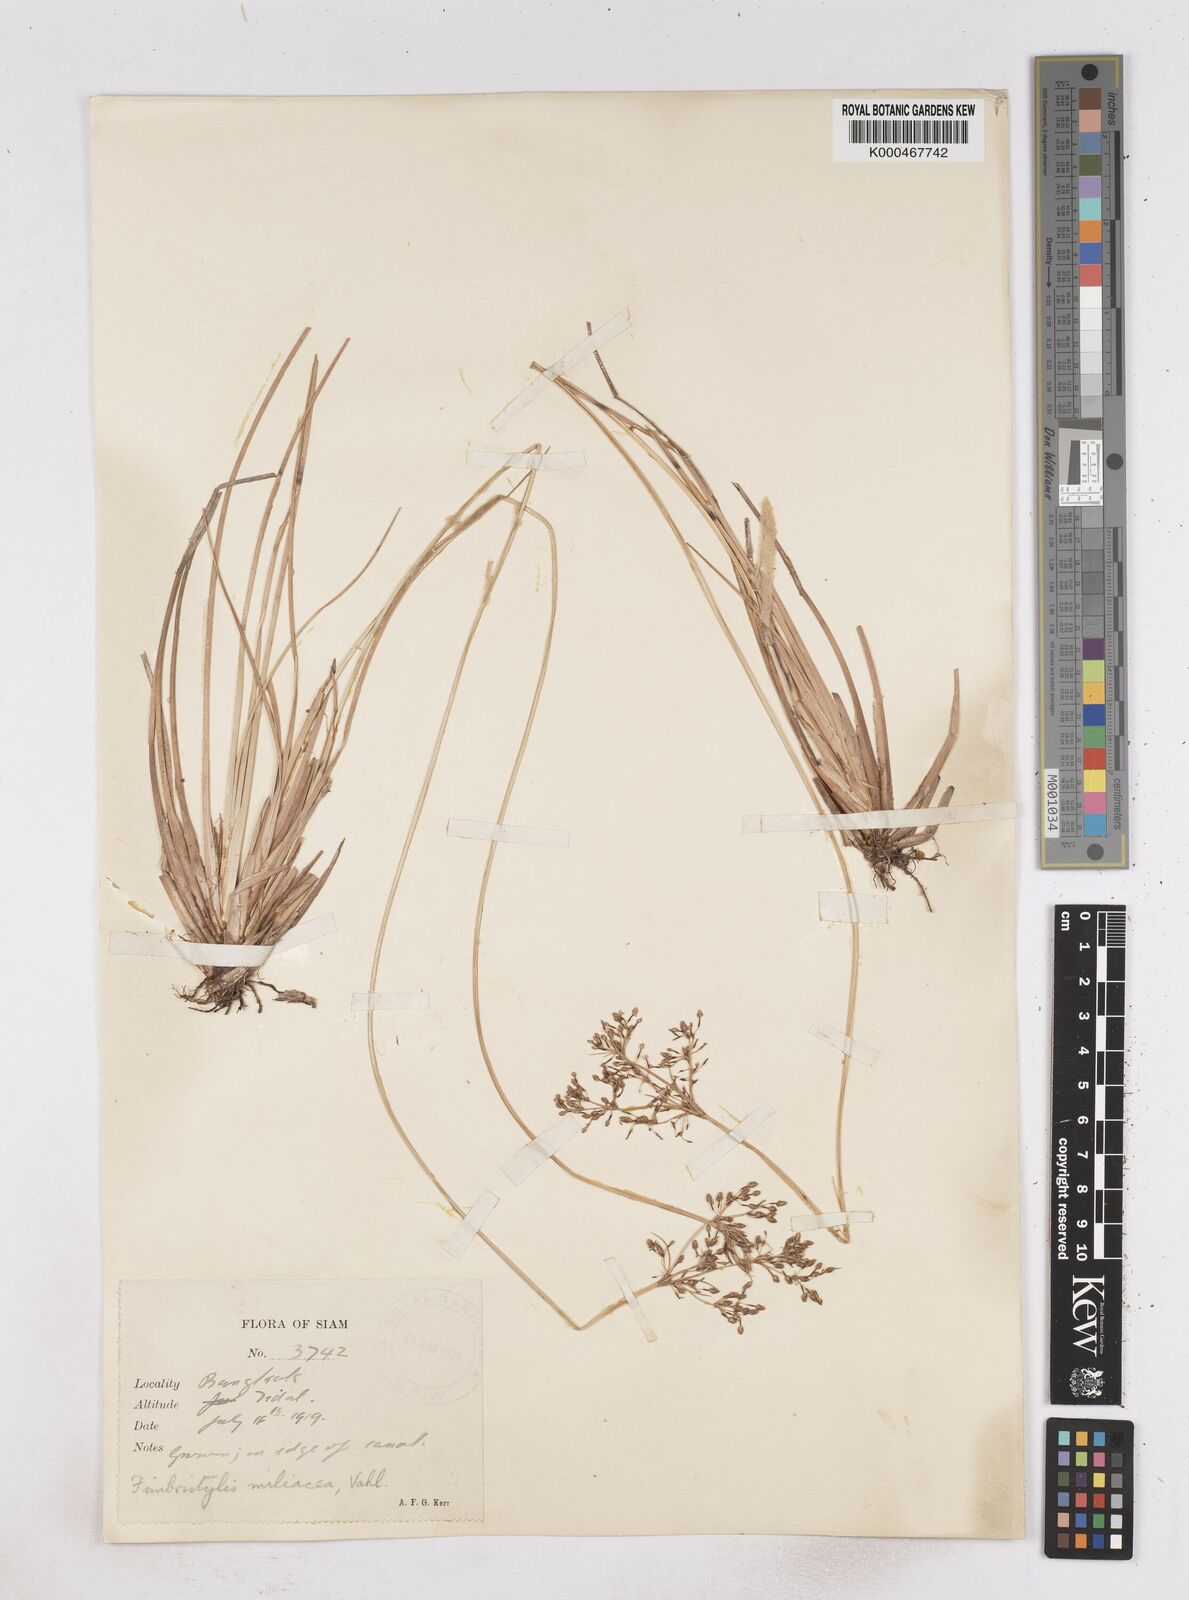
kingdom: Plantae
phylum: Tracheophyta
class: Liliopsida
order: Poales
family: Cyperaceae
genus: Fimbristylis
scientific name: Fimbristylis quinquangularis
